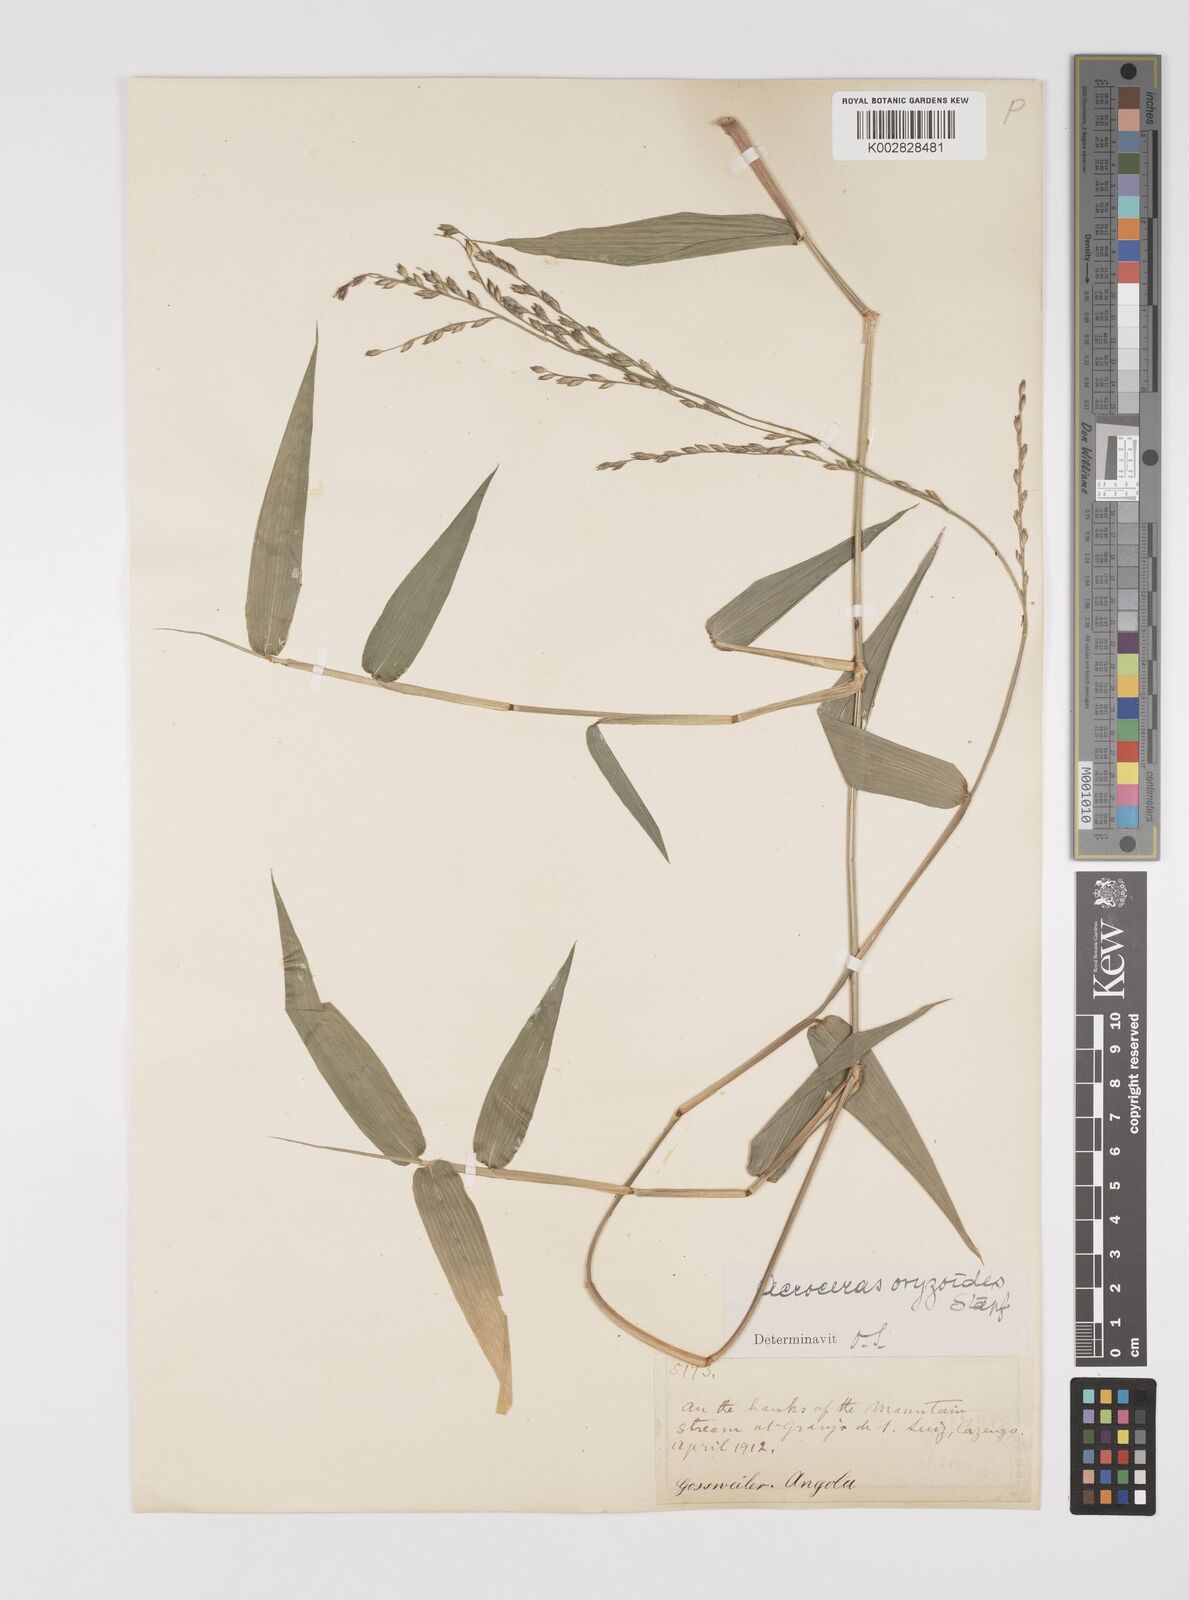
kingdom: Plantae
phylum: Tracheophyta
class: Liliopsida
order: Poales
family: Poaceae
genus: Acroceras
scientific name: Acroceras zizanioides
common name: Oat grass
